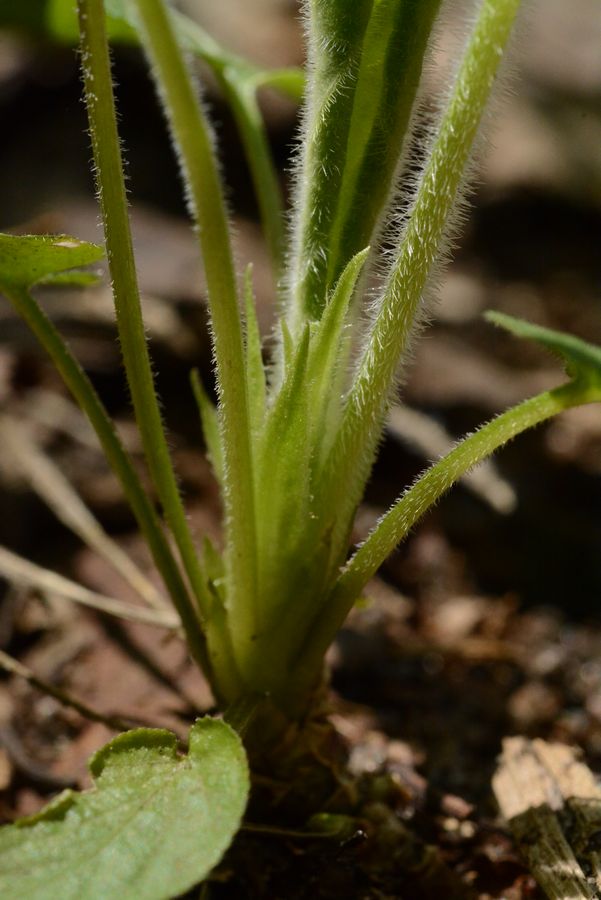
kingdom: Plantae
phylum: Tracheophyta
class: Magnoliopsida
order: Malpighiales
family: Violaceae
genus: Viola
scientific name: Viola collina
